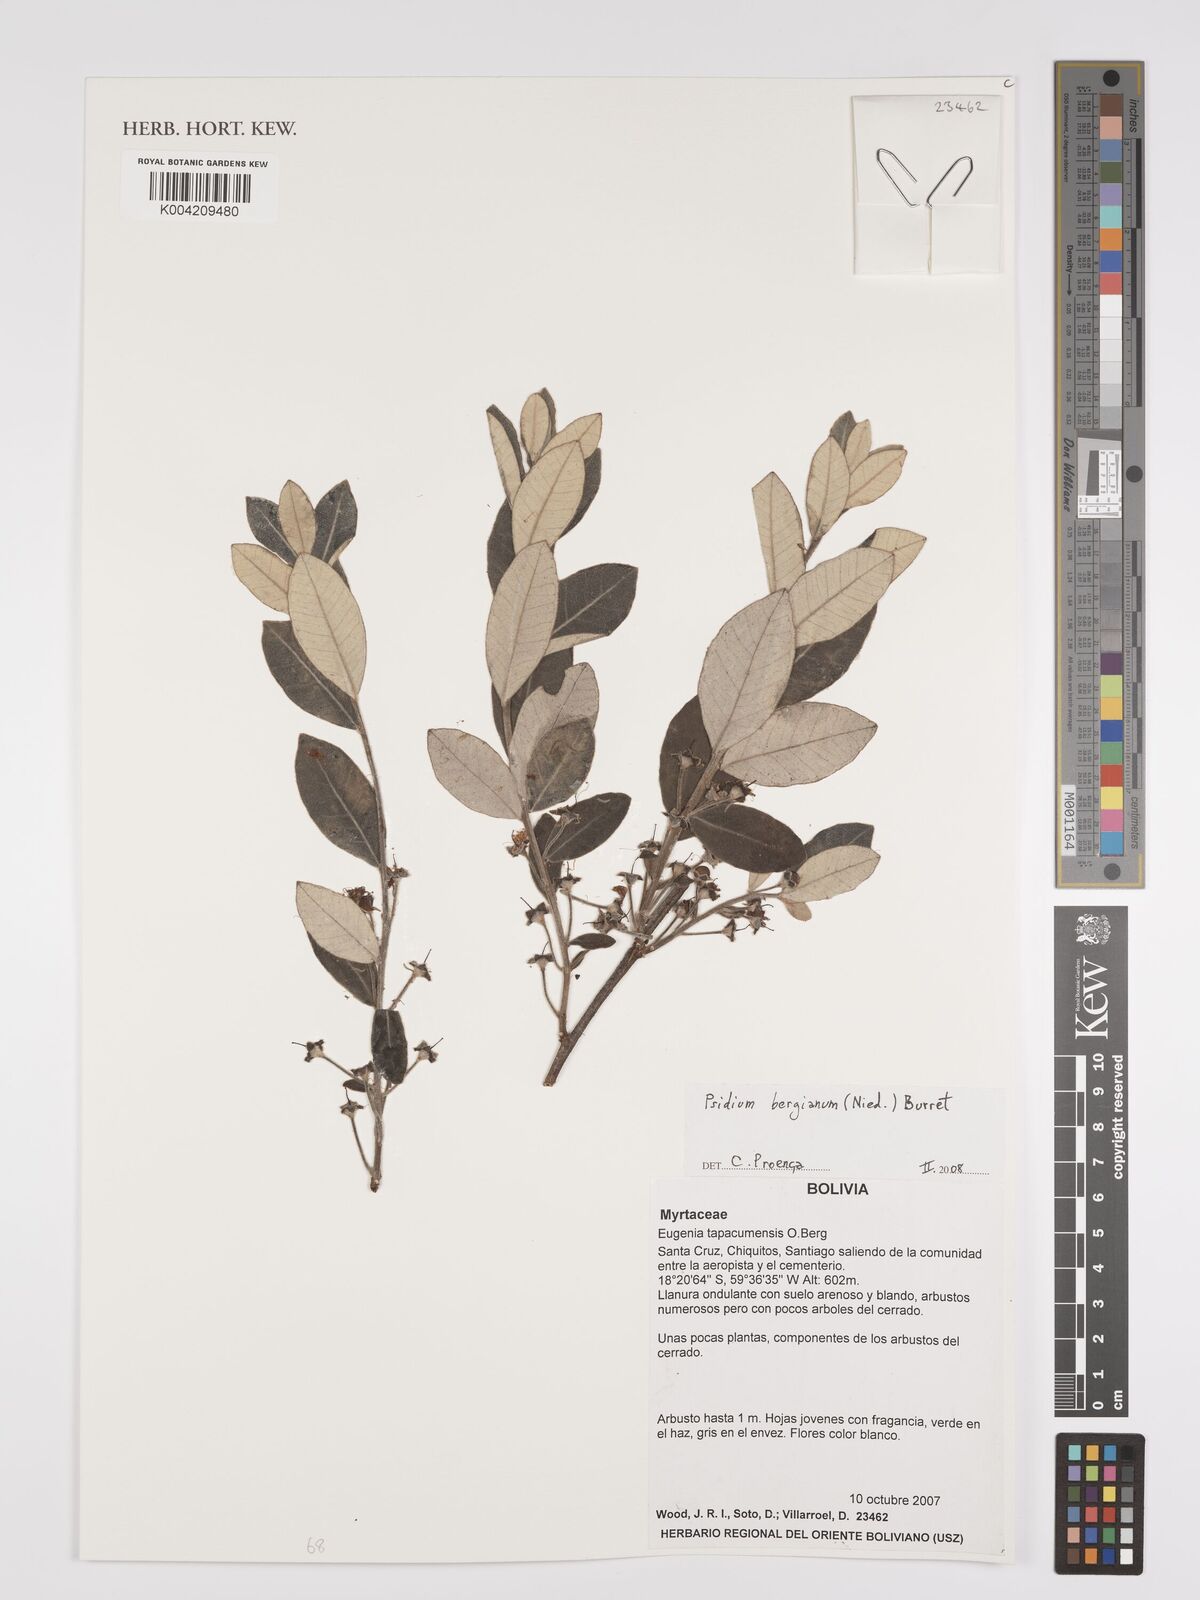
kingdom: Plantae
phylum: Tracheophyta
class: Magnoliopsida
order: Myrtales
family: Myrtaceae
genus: Psidium
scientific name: Psidium bergianum
